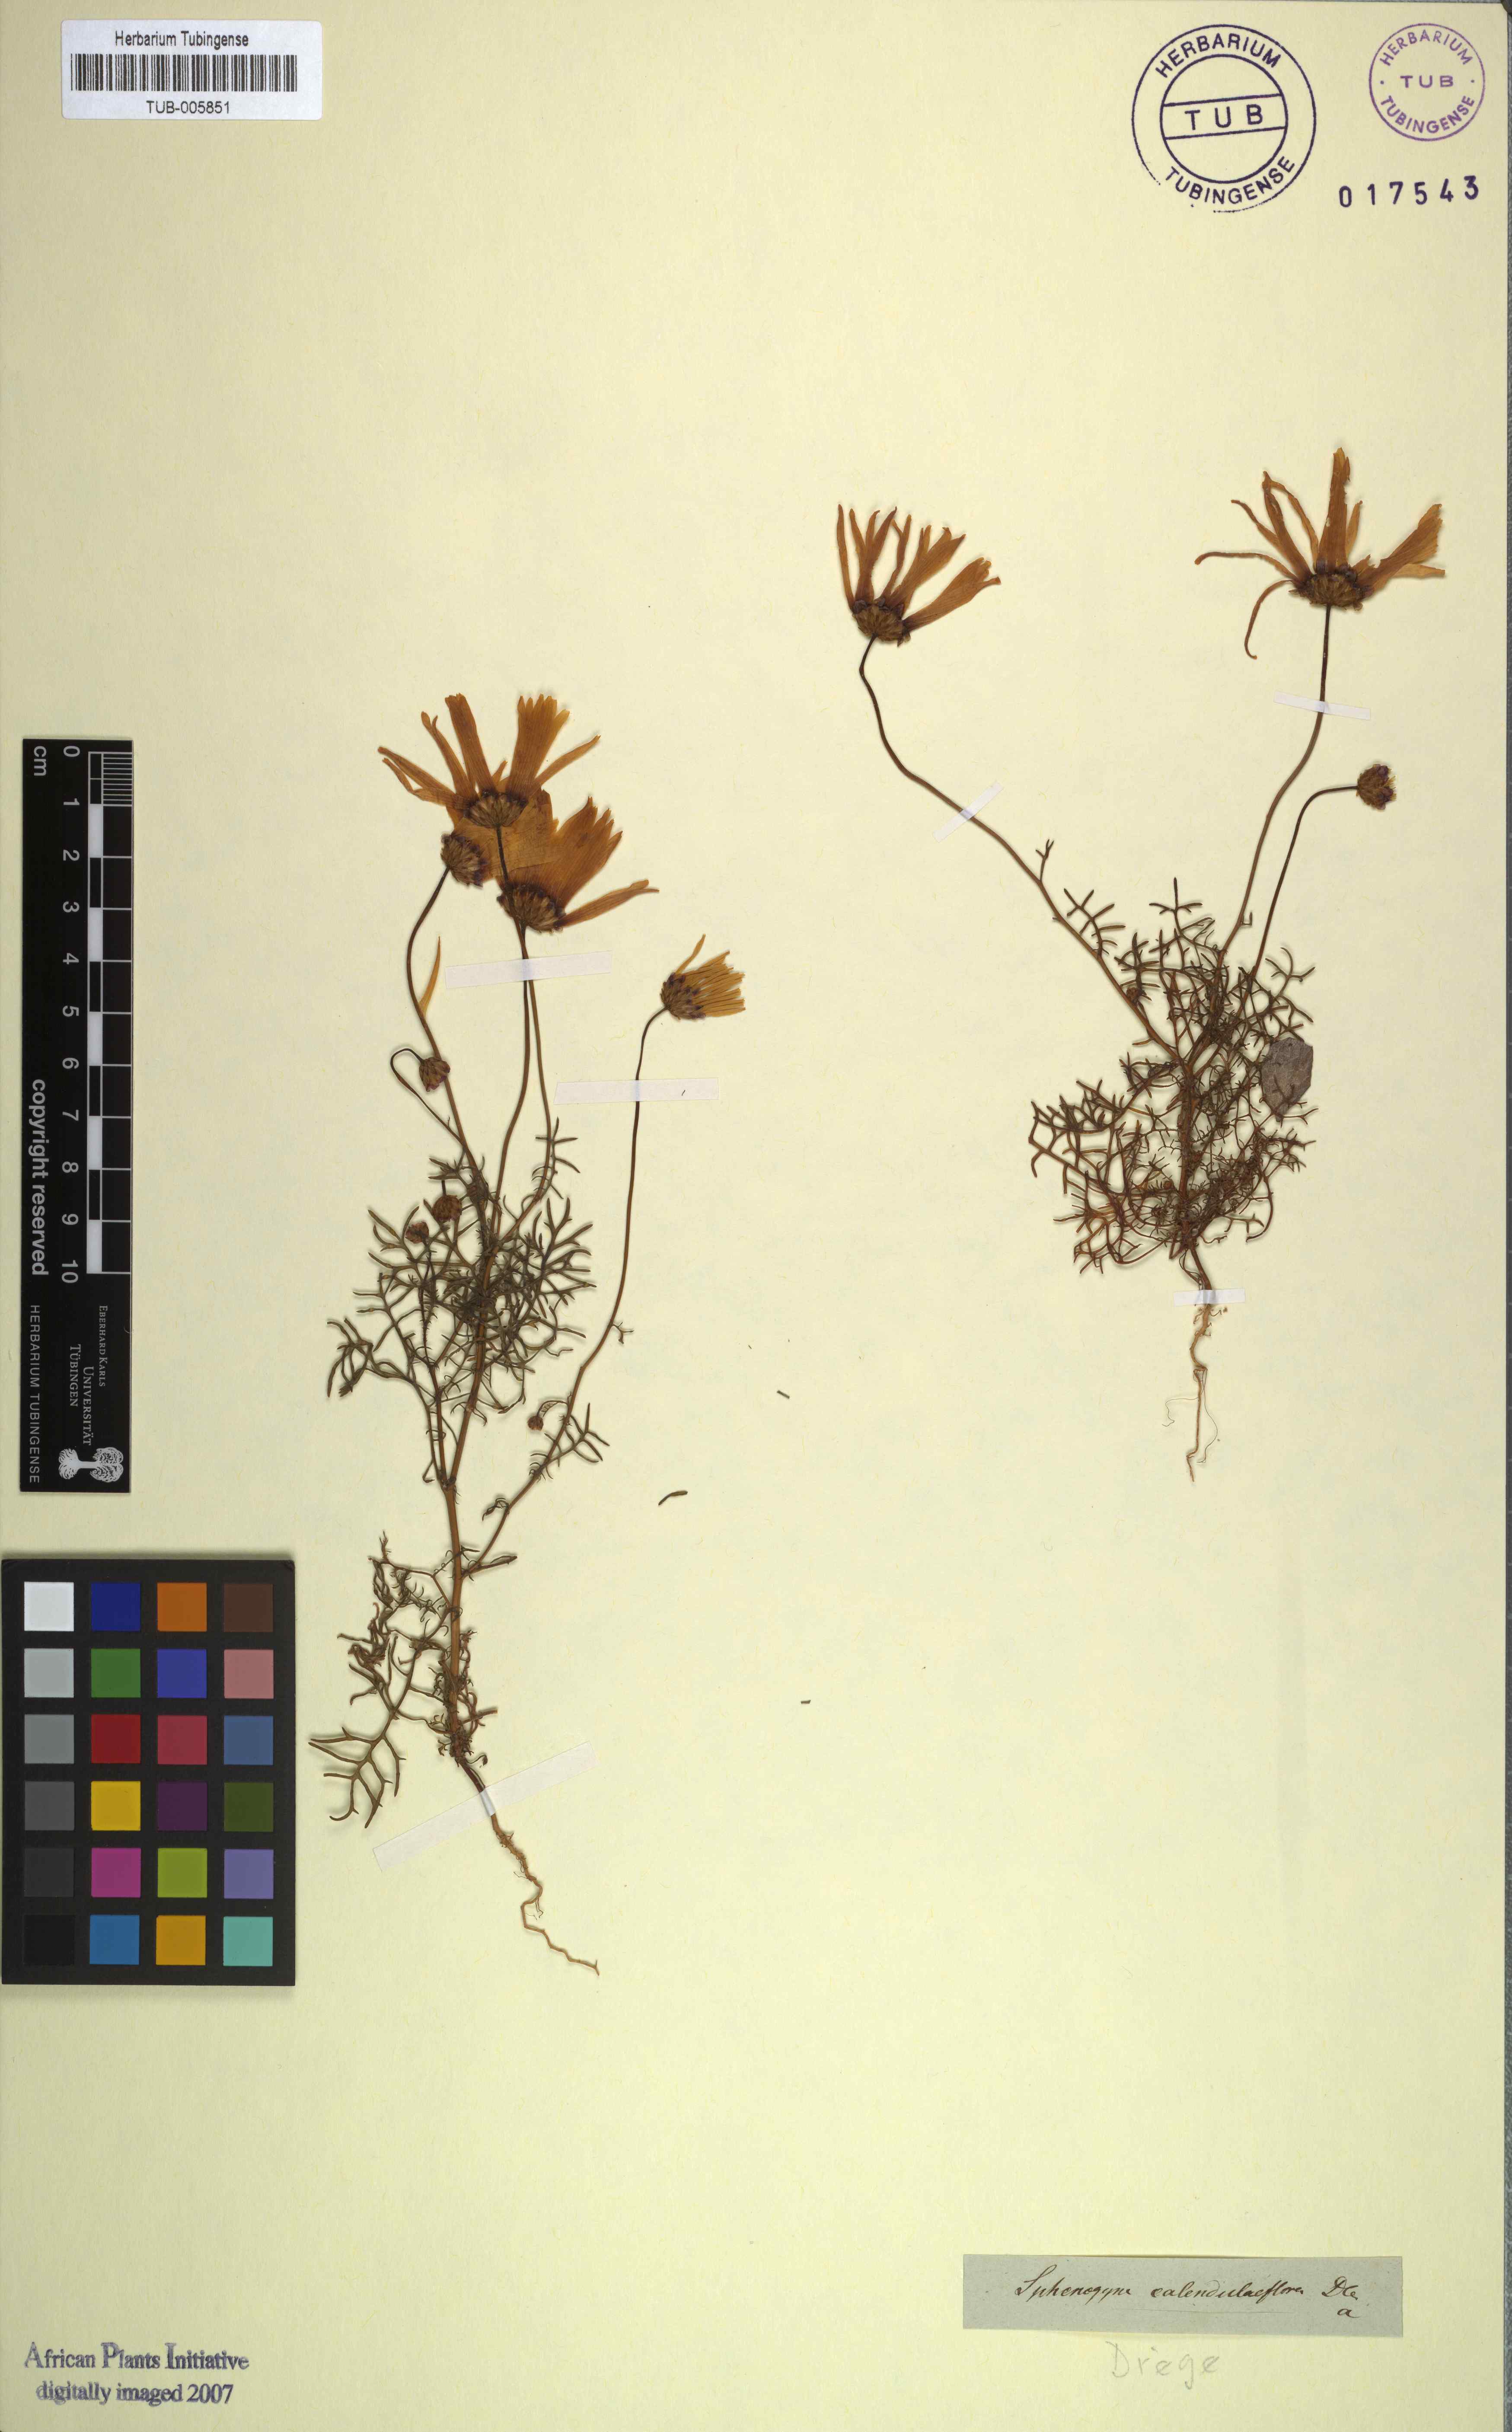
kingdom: Plantae
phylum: Tracheophyta
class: Magnoliopsida
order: Asterales
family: Asteraceae
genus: Ursinia
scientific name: Ursinia calenduliflora
